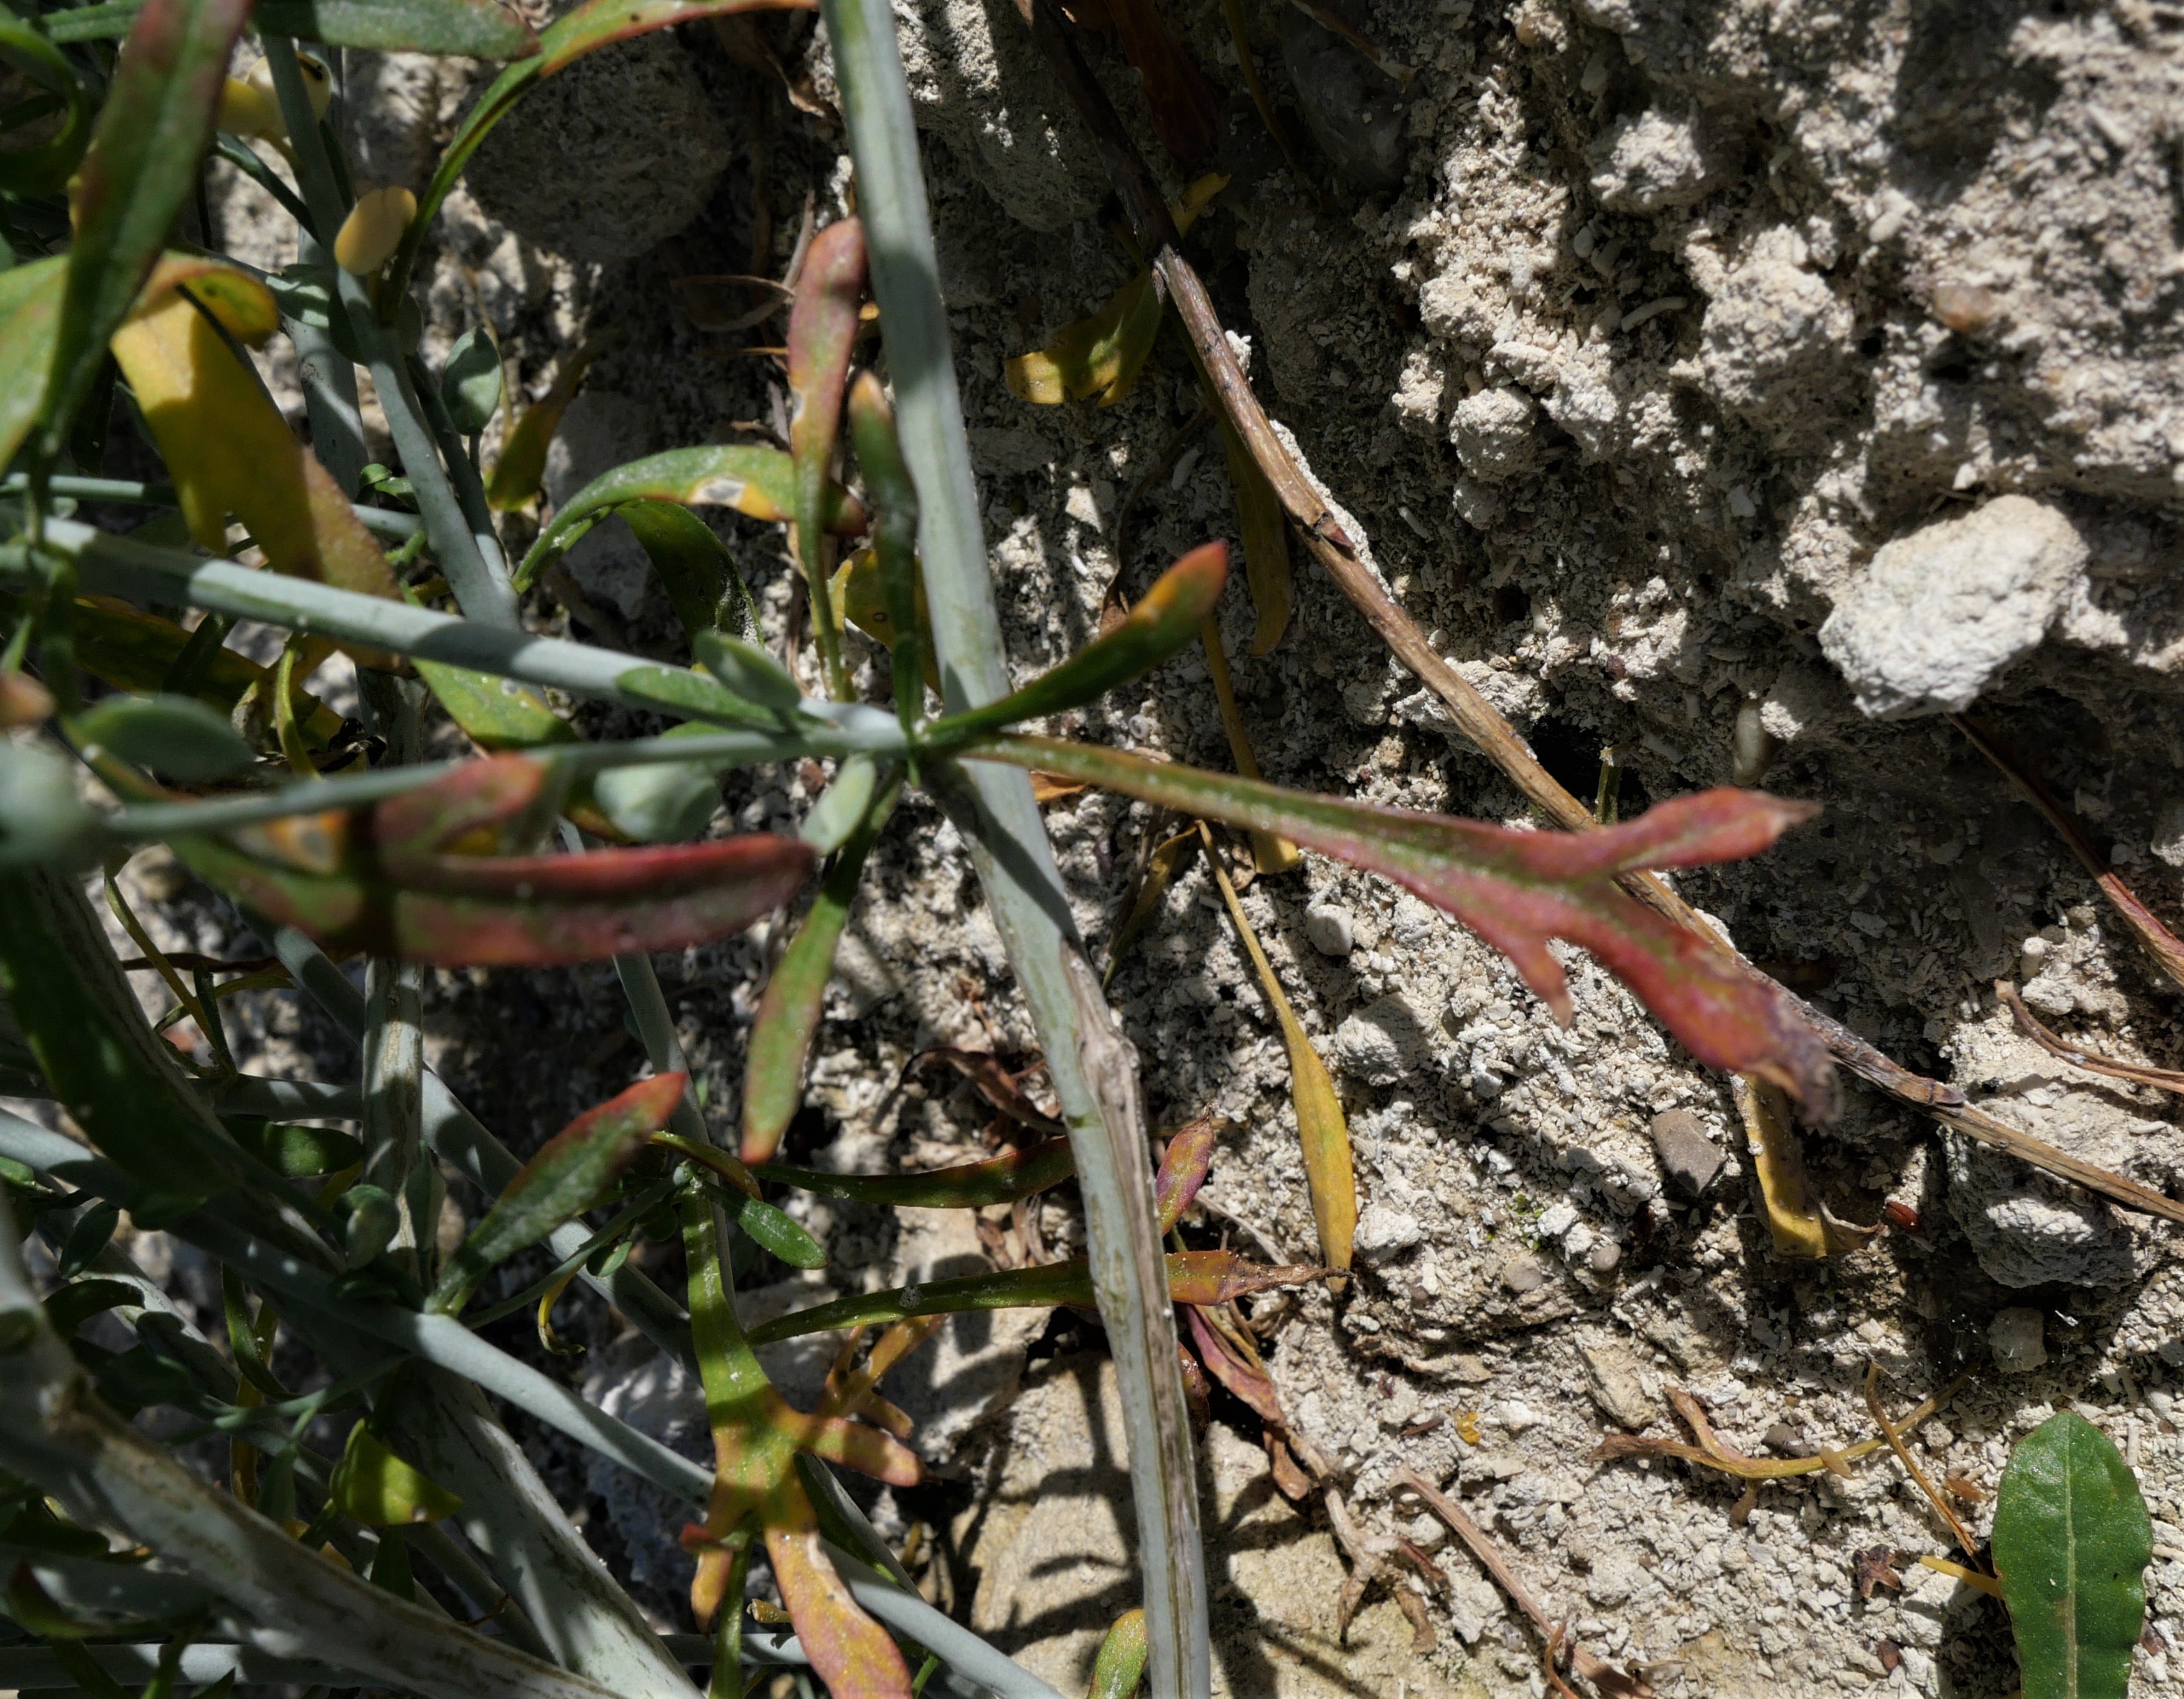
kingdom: Plantae
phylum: Tracheophyta
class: Magnoliopsida
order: Brassicales
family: Brassicaceae
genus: Lepidium
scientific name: Lepidium
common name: Karseslægten
